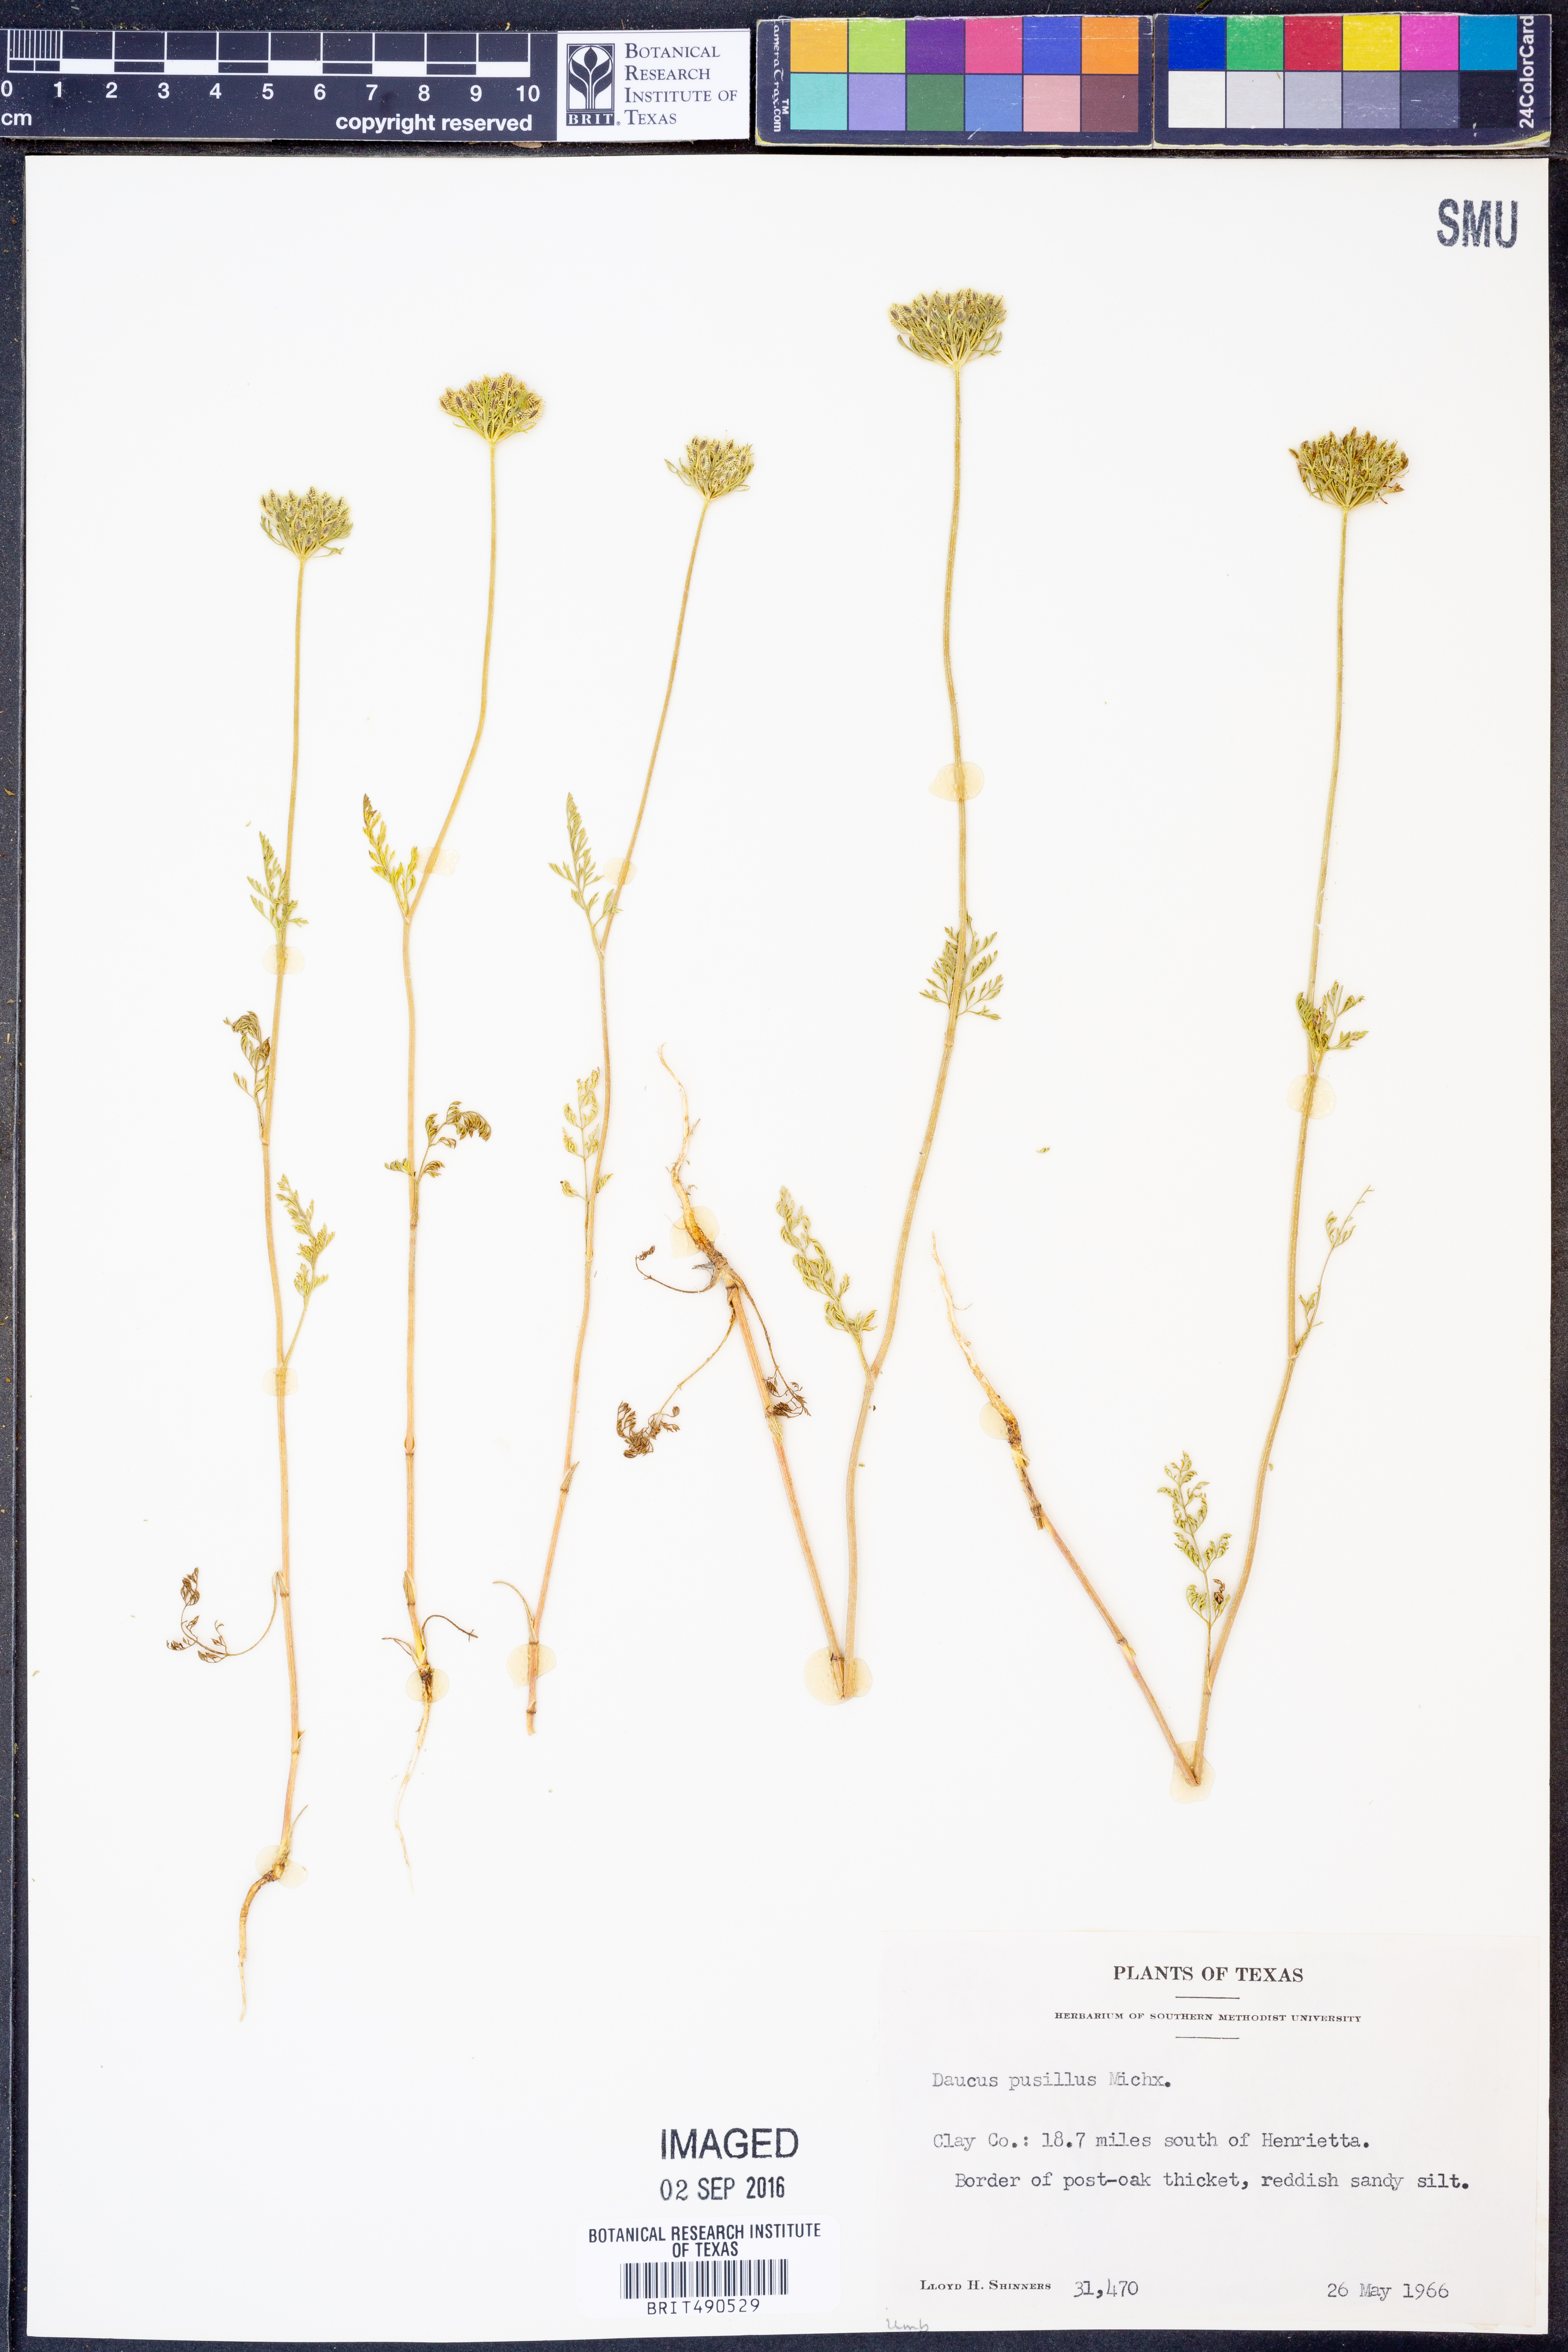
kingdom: Plantae
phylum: Tracheophyta
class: Magnoliopsida
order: Apiales
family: Apiaceae
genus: Daucus
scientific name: Daucus pusillus
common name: Southwest wild carrot
